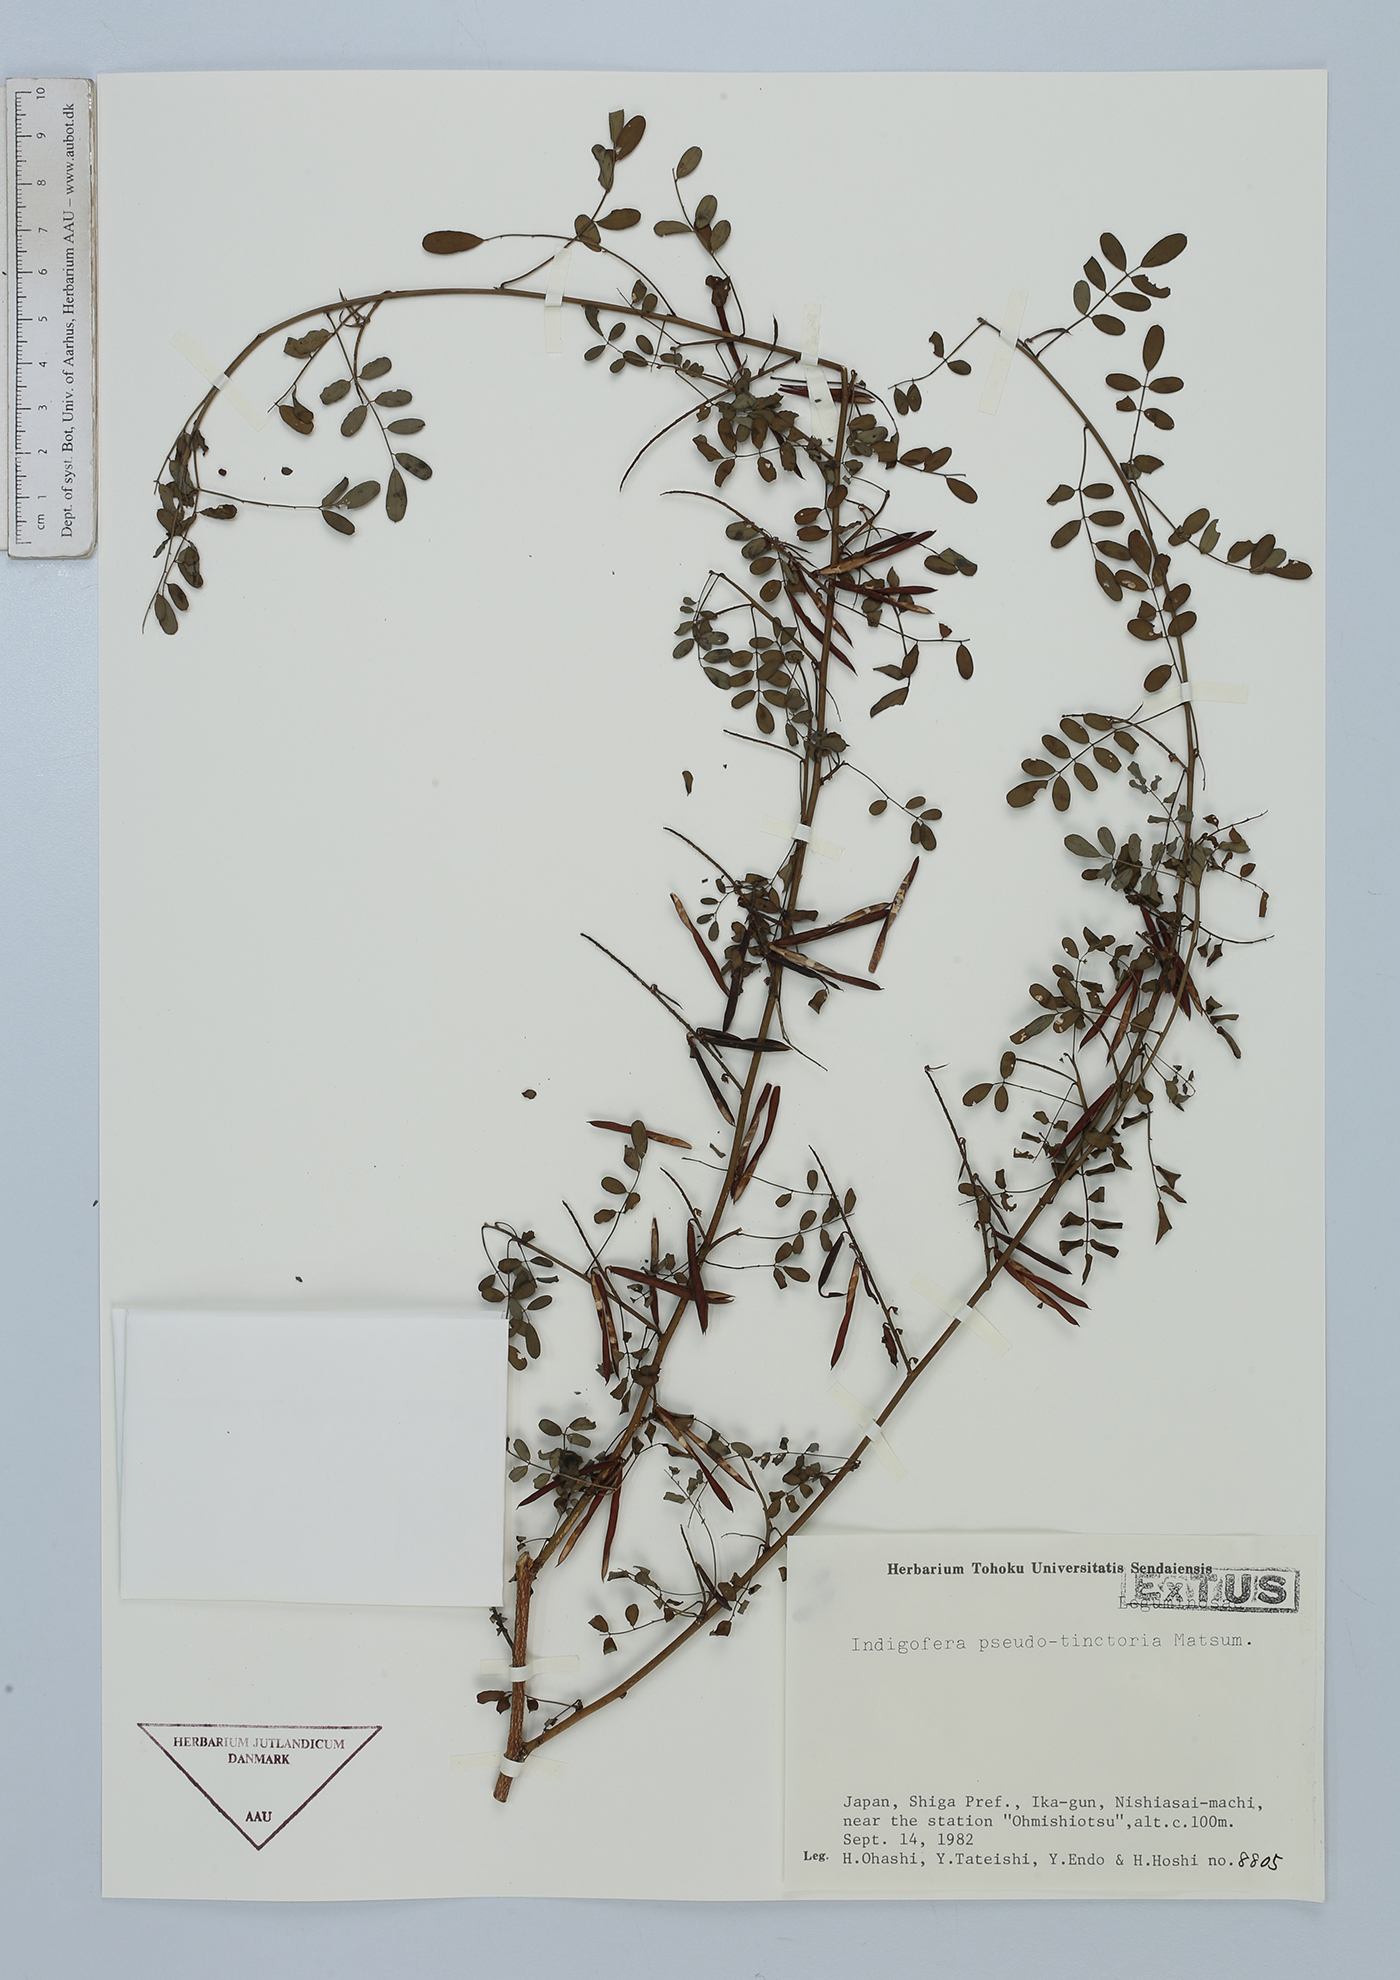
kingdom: Plantae
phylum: Tracheophyta
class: Magnoliopsida
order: Fabales
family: Fabaceae
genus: Indigofera
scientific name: Indigofera bungeana
